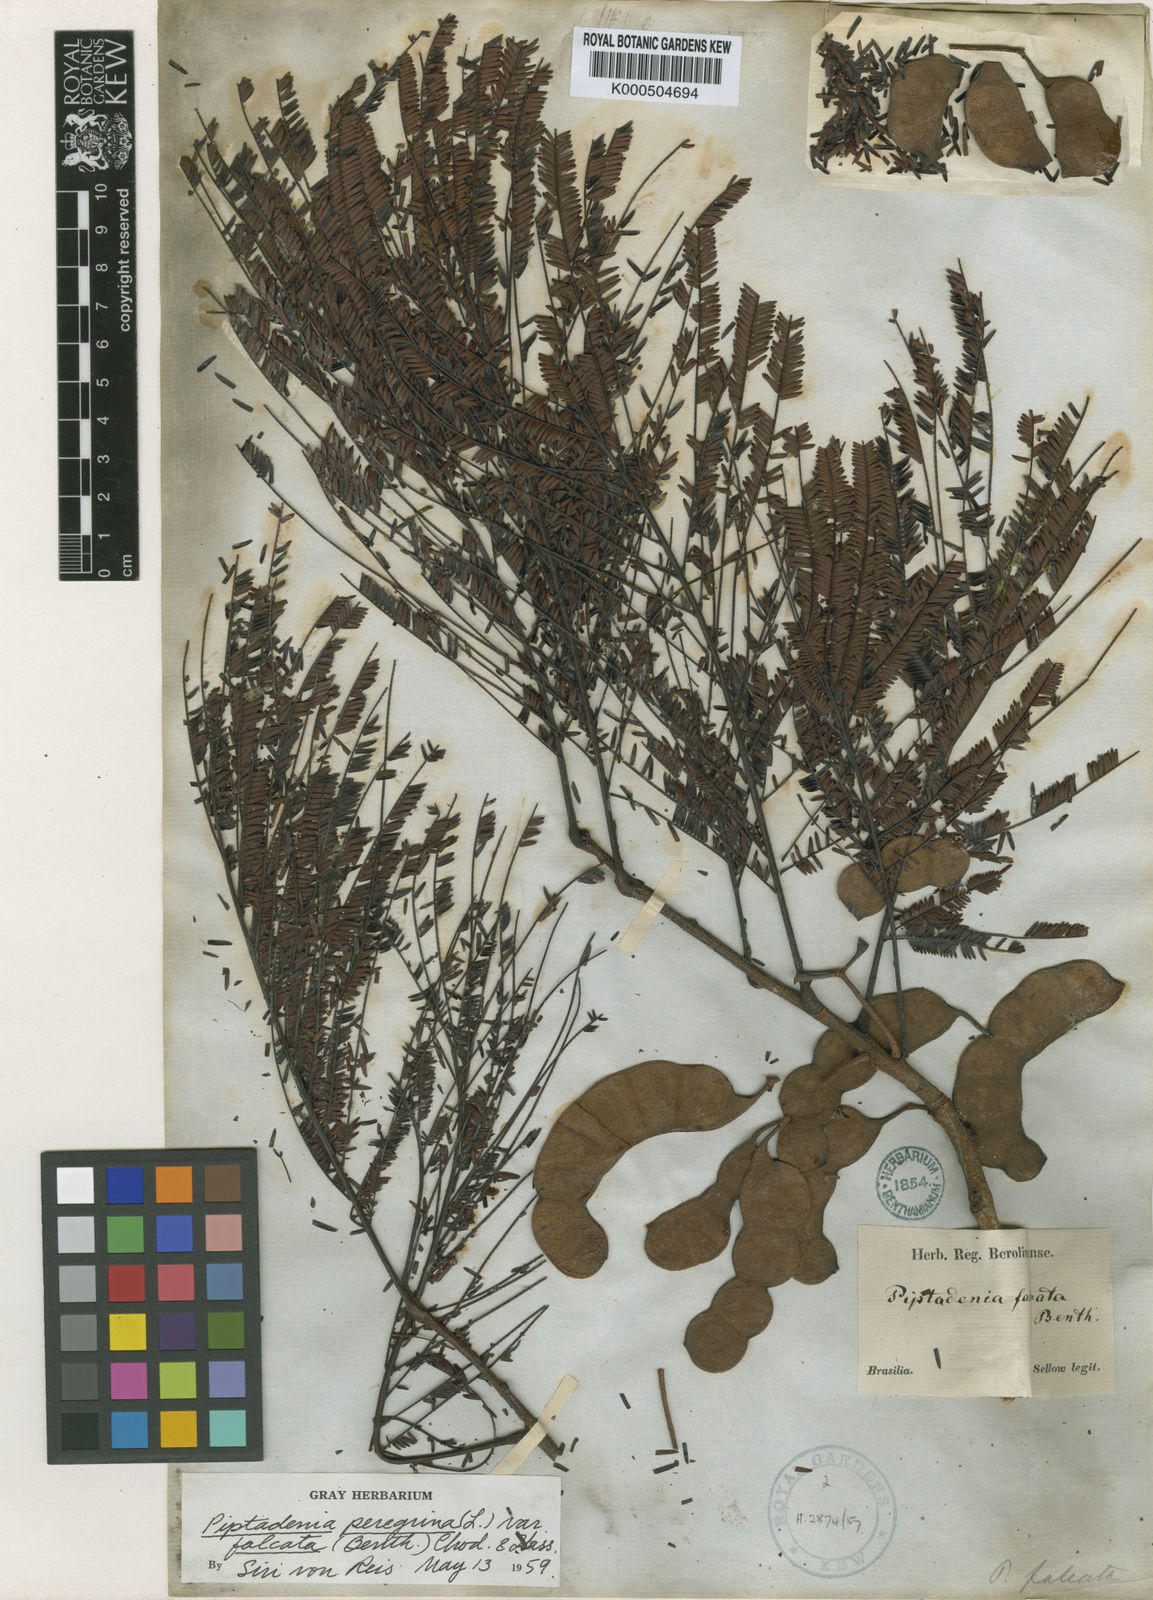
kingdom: Plantae
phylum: Tracheophyta
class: Magnoliopsida
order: Fabales
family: Fabaceae
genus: Anadenanthera
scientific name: Anadenanthera peregrina
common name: Cohoba
